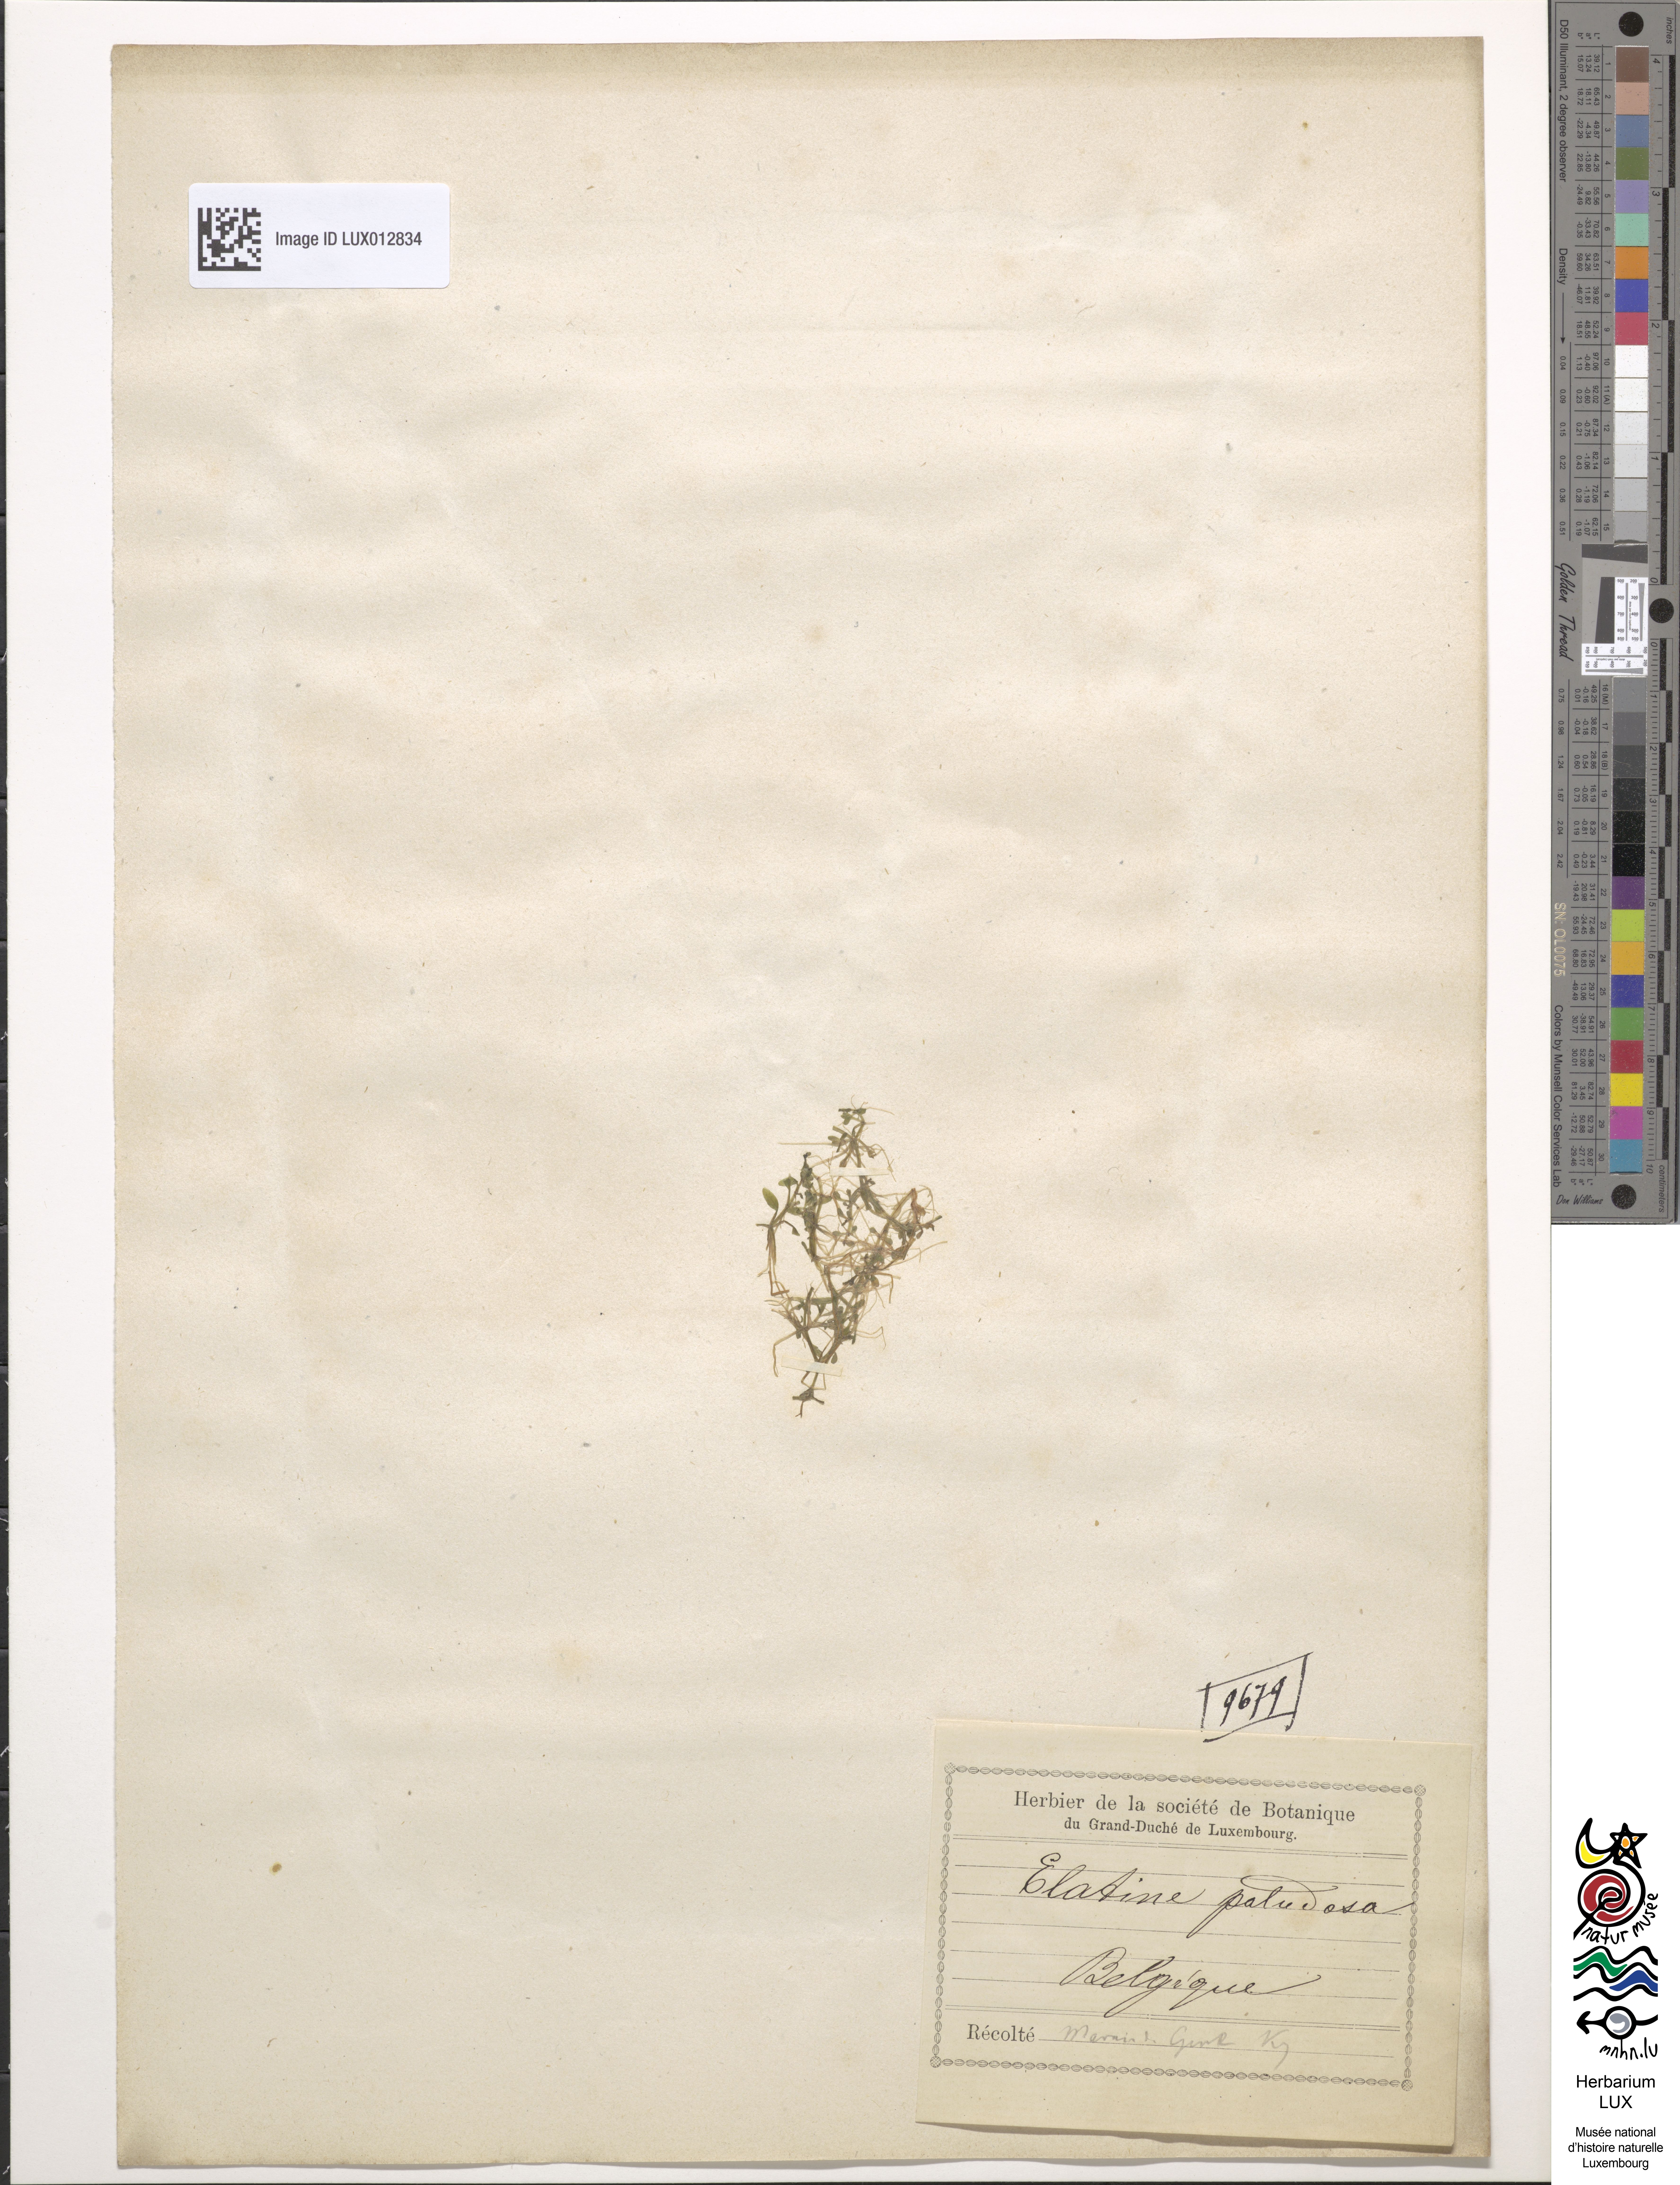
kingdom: Plantae
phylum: Tracheophyta
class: Magnoliopsida
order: Malpighiales
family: Elatinaceae
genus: Elatine
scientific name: Elatine hexandra
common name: Six-stamened waterwort
